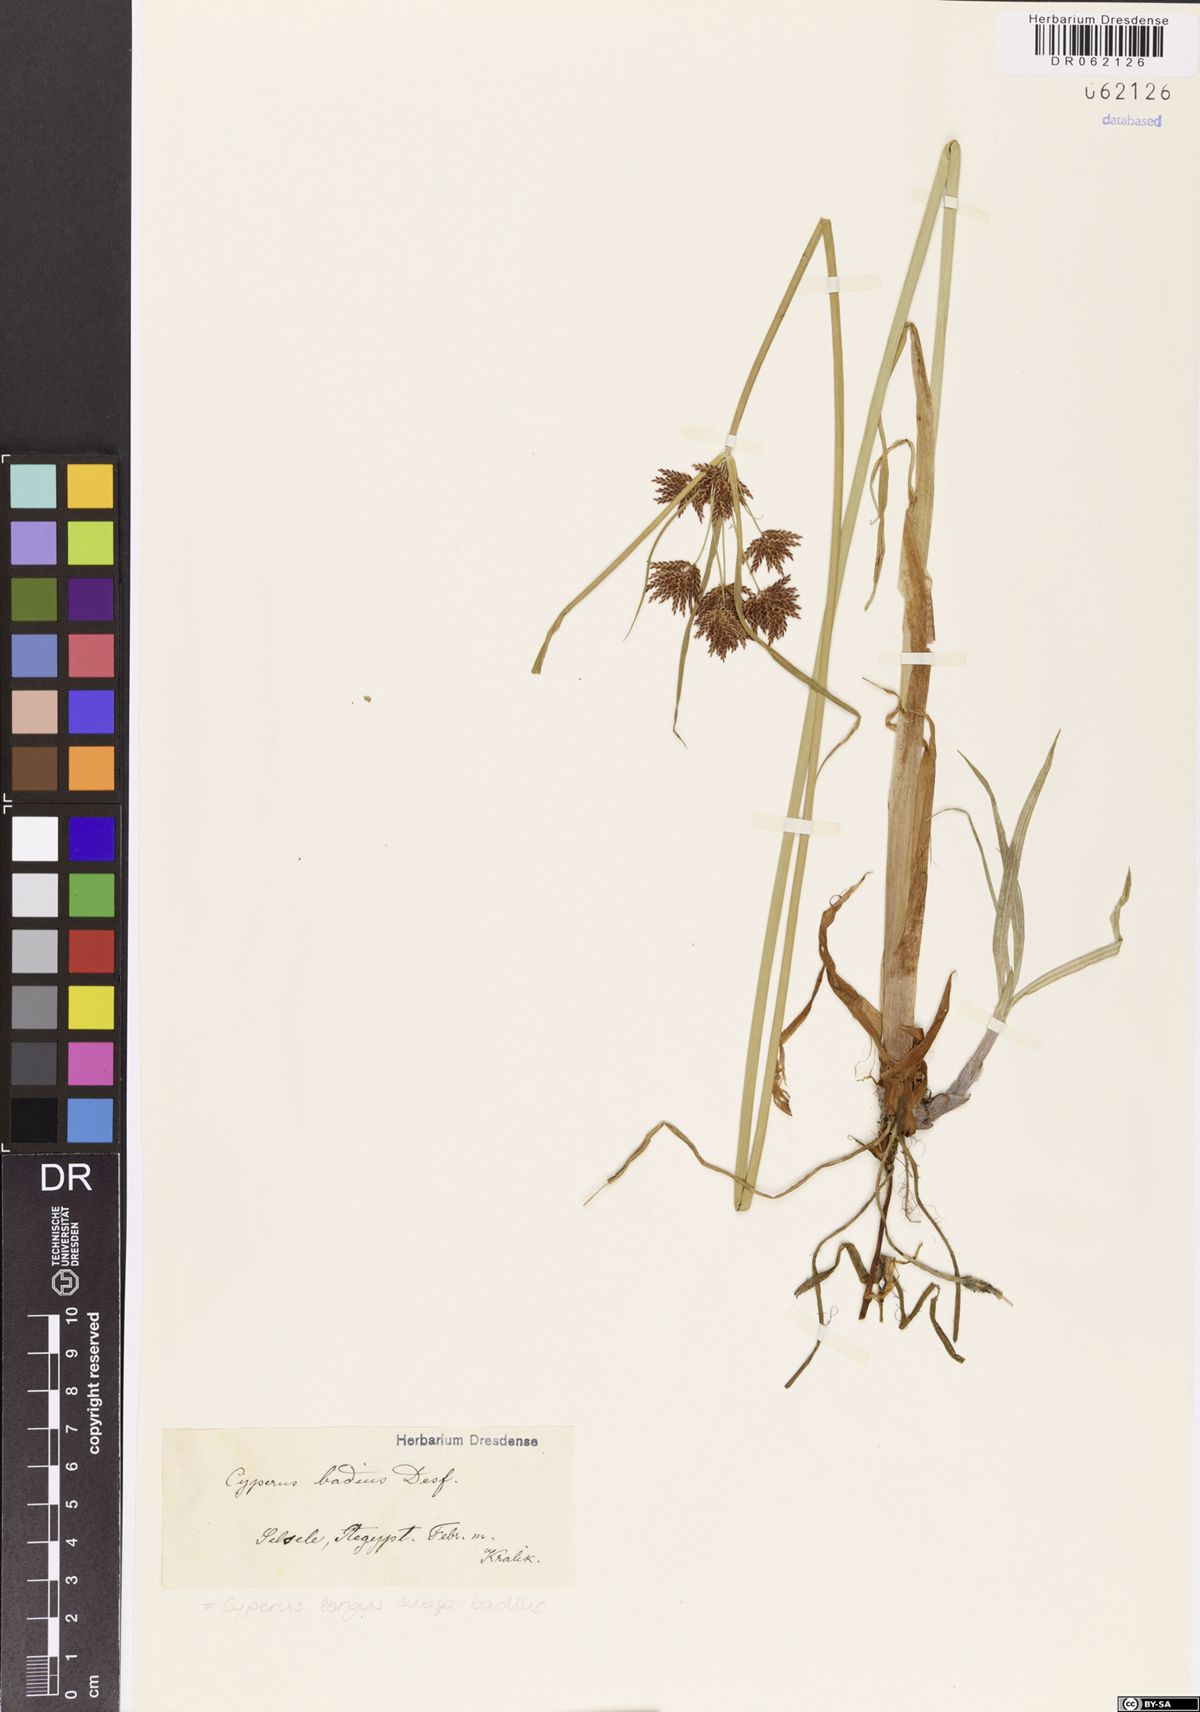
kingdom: Plantae
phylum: Tracheophyta
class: Liliopsida
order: Poales
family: Cyperaceae
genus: Cyperus
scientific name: Cyperus longus
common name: Galingale
